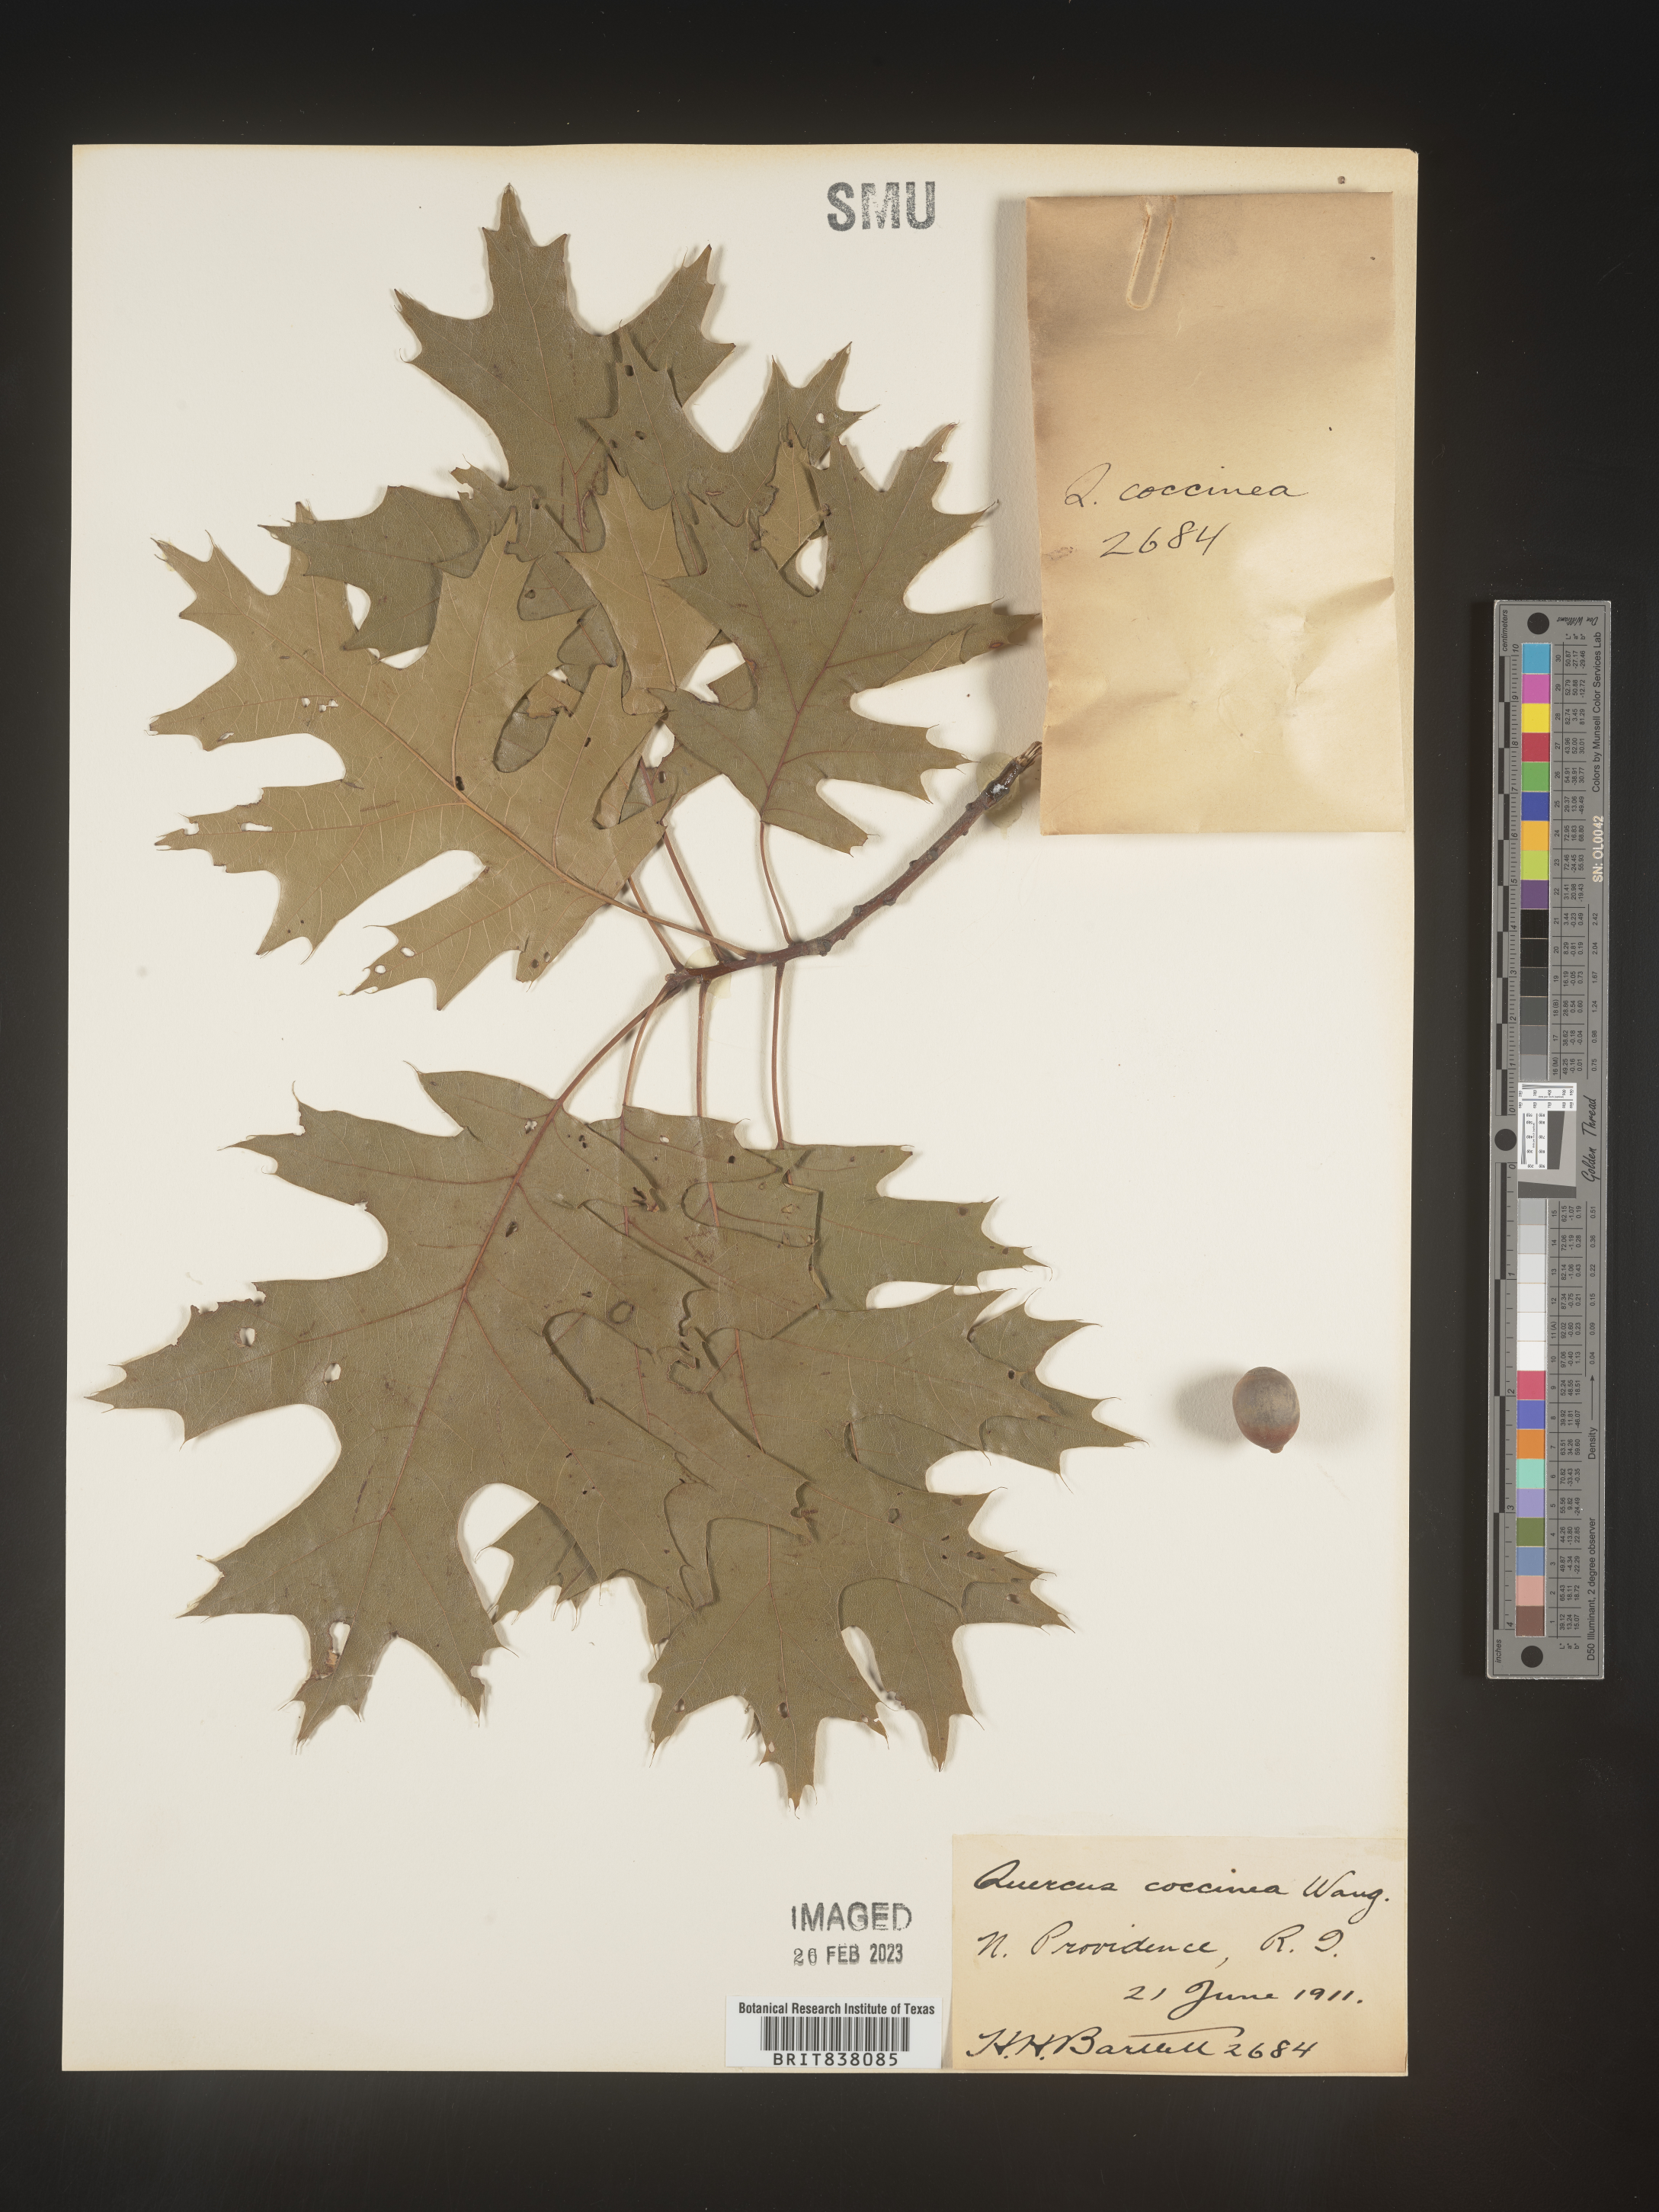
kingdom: Plantae
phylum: Tracheophyta
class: Magnoliopsida
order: Fagales
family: Fagaceae
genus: Quercus
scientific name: Quercus coccinea
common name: Scarlet oak
